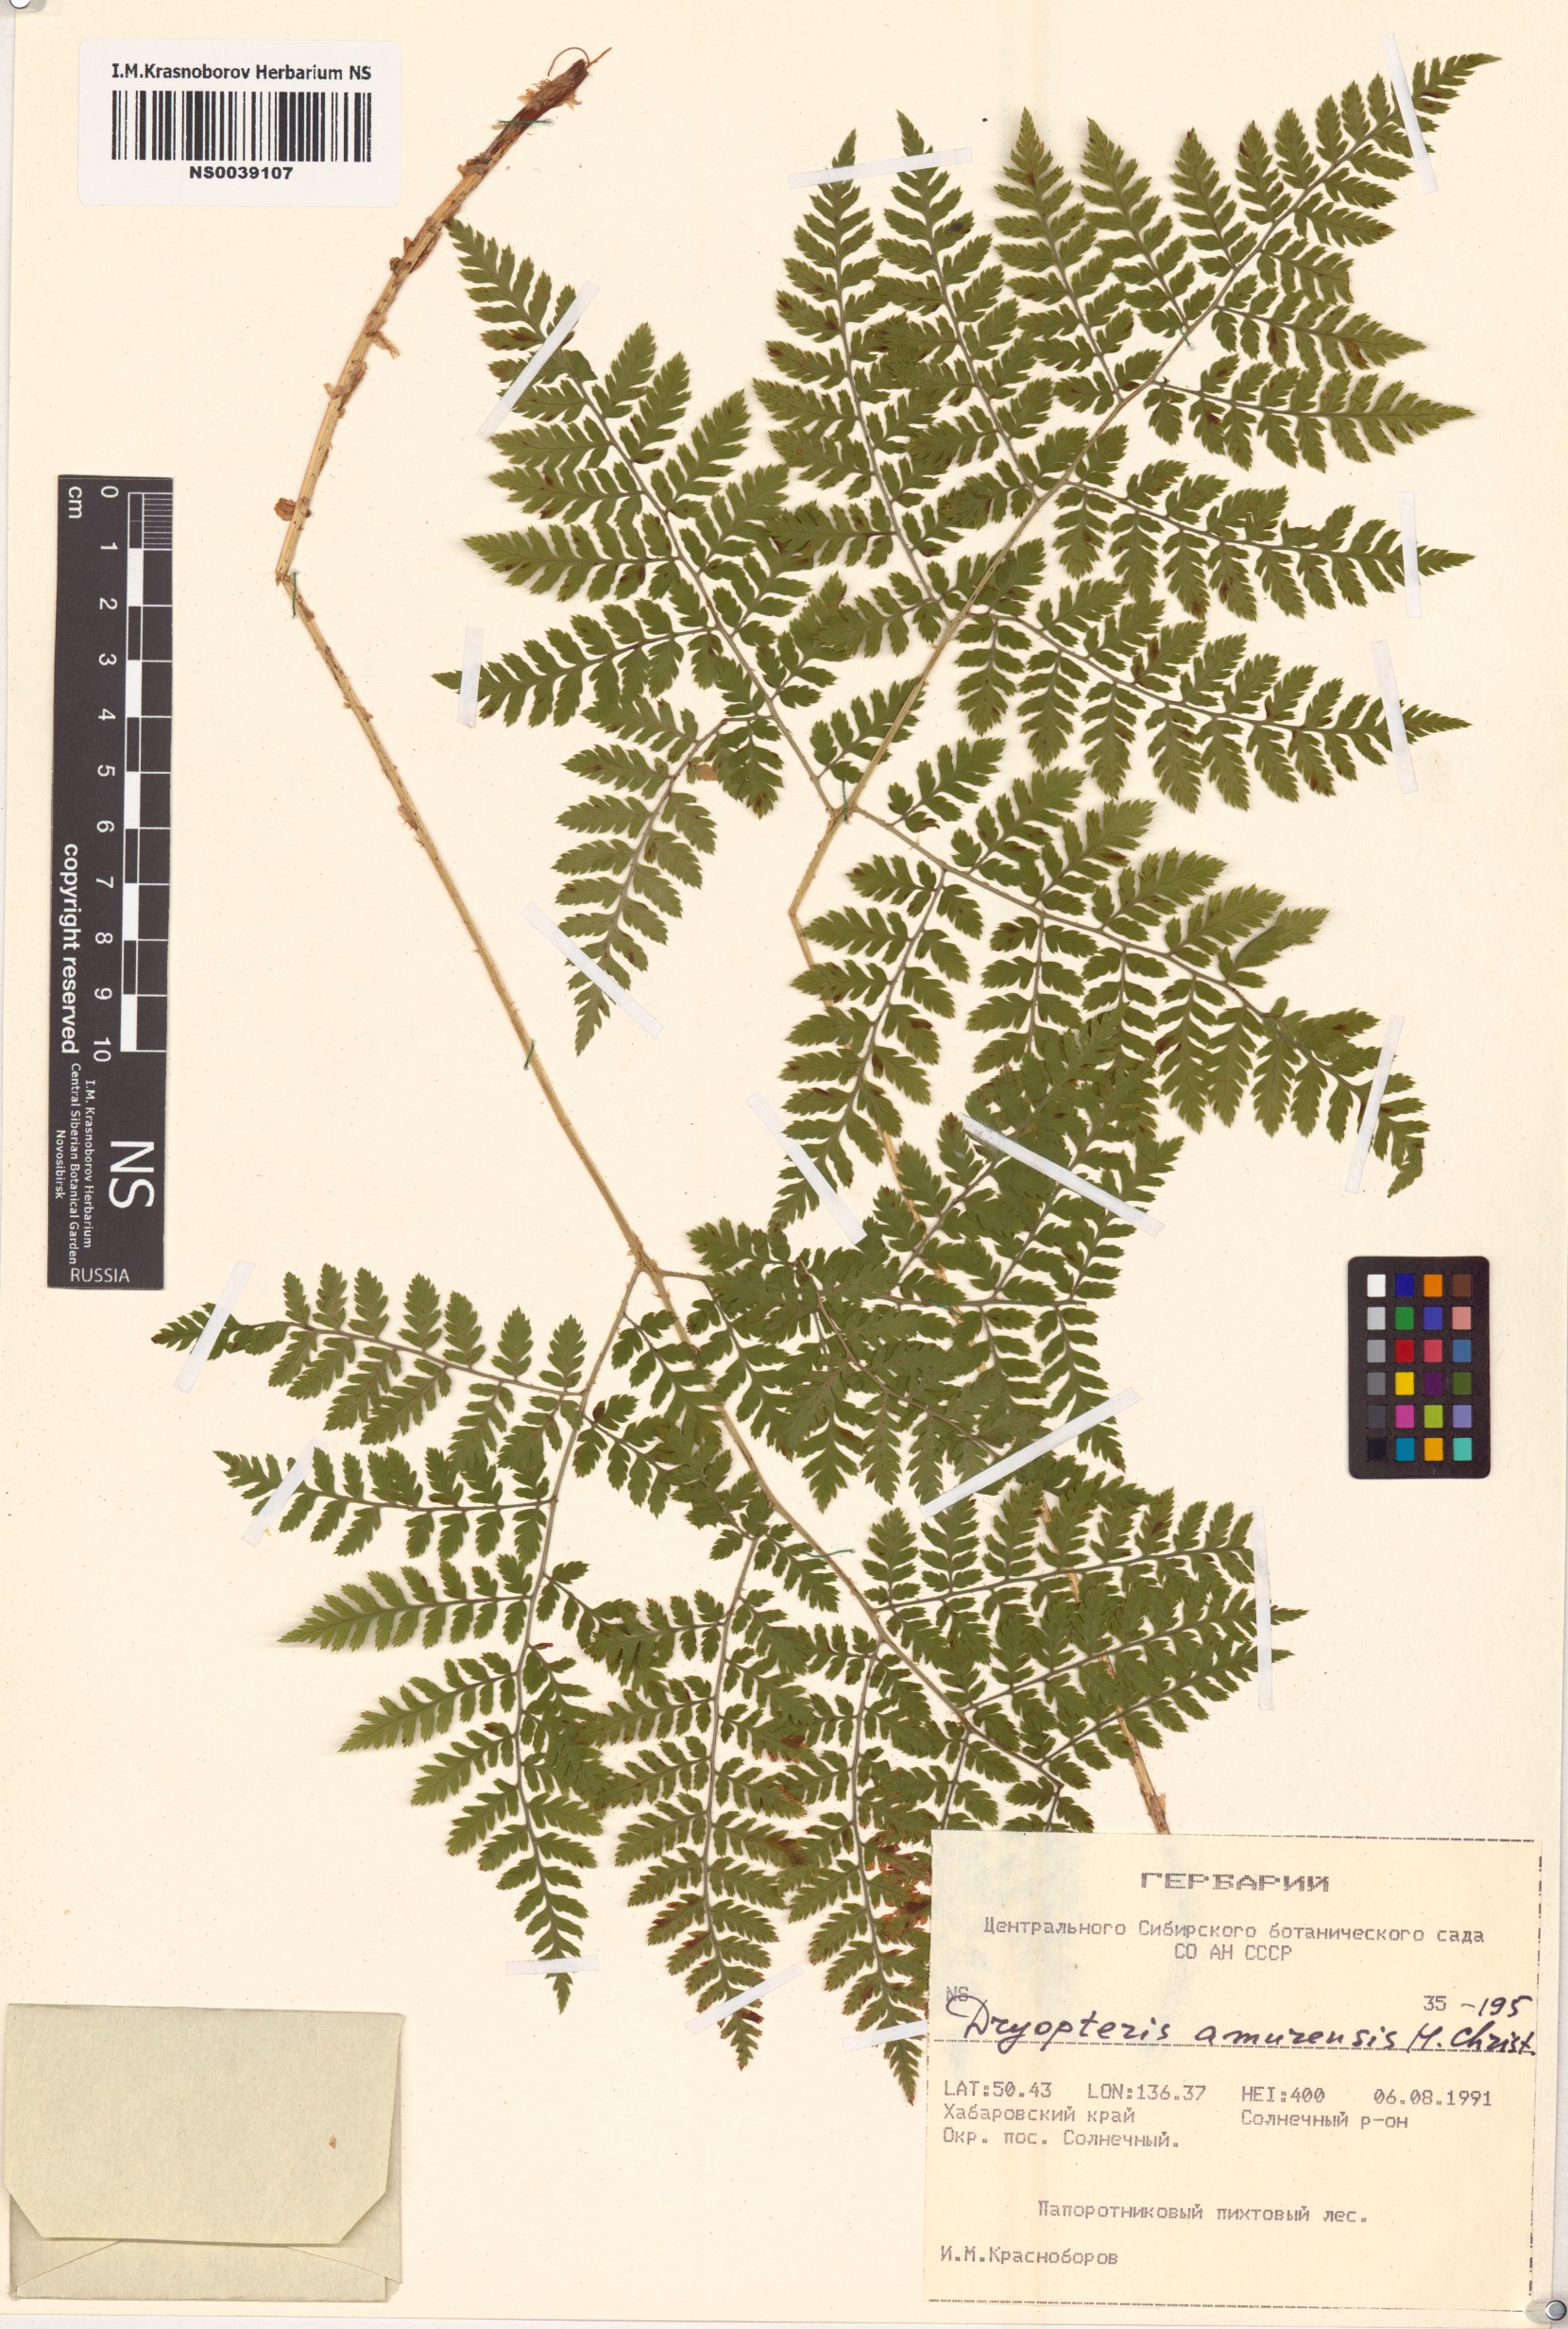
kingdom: Plantae
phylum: Tracheophyta
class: Polypodiopsida
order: Polypodiales
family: Dryopteridaceae
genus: Dryopteris
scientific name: Dryopteris amurensis
